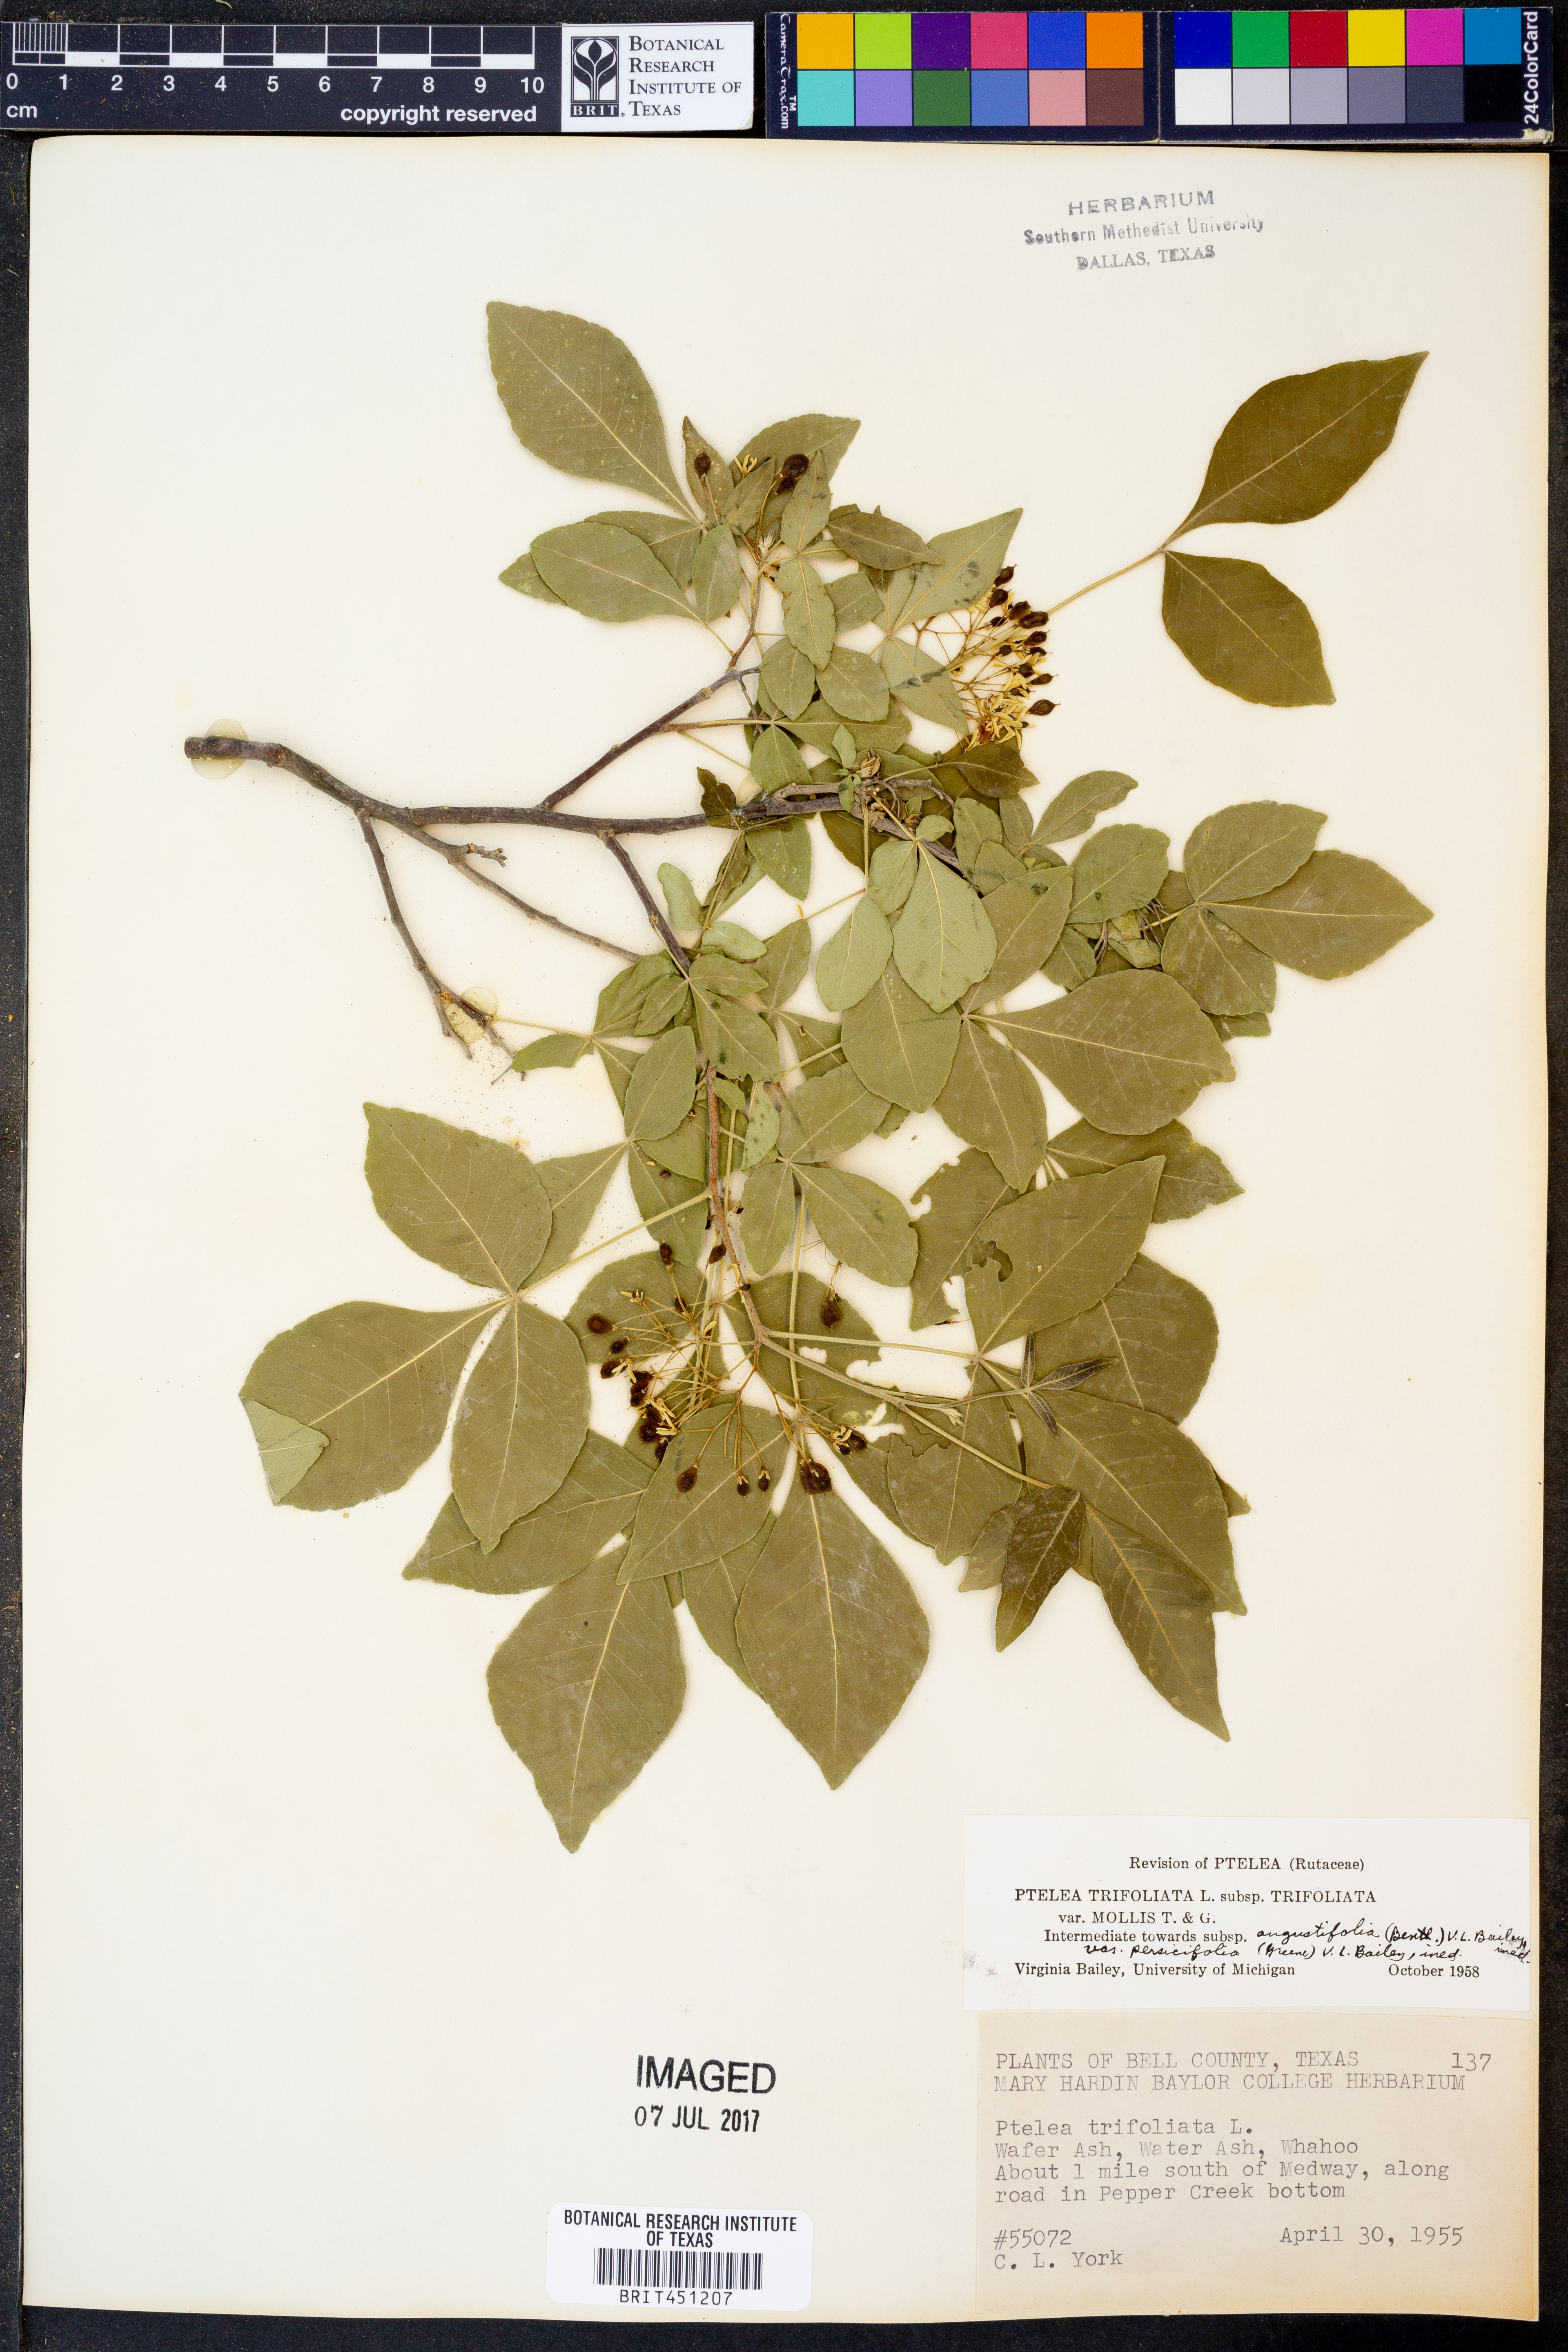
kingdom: Plantae
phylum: Tracheophyta
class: Magnoliopsida
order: Sapindales
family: Rutaceae
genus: Ptelea
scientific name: Ptelea trifoliata
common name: Common hop-tree
